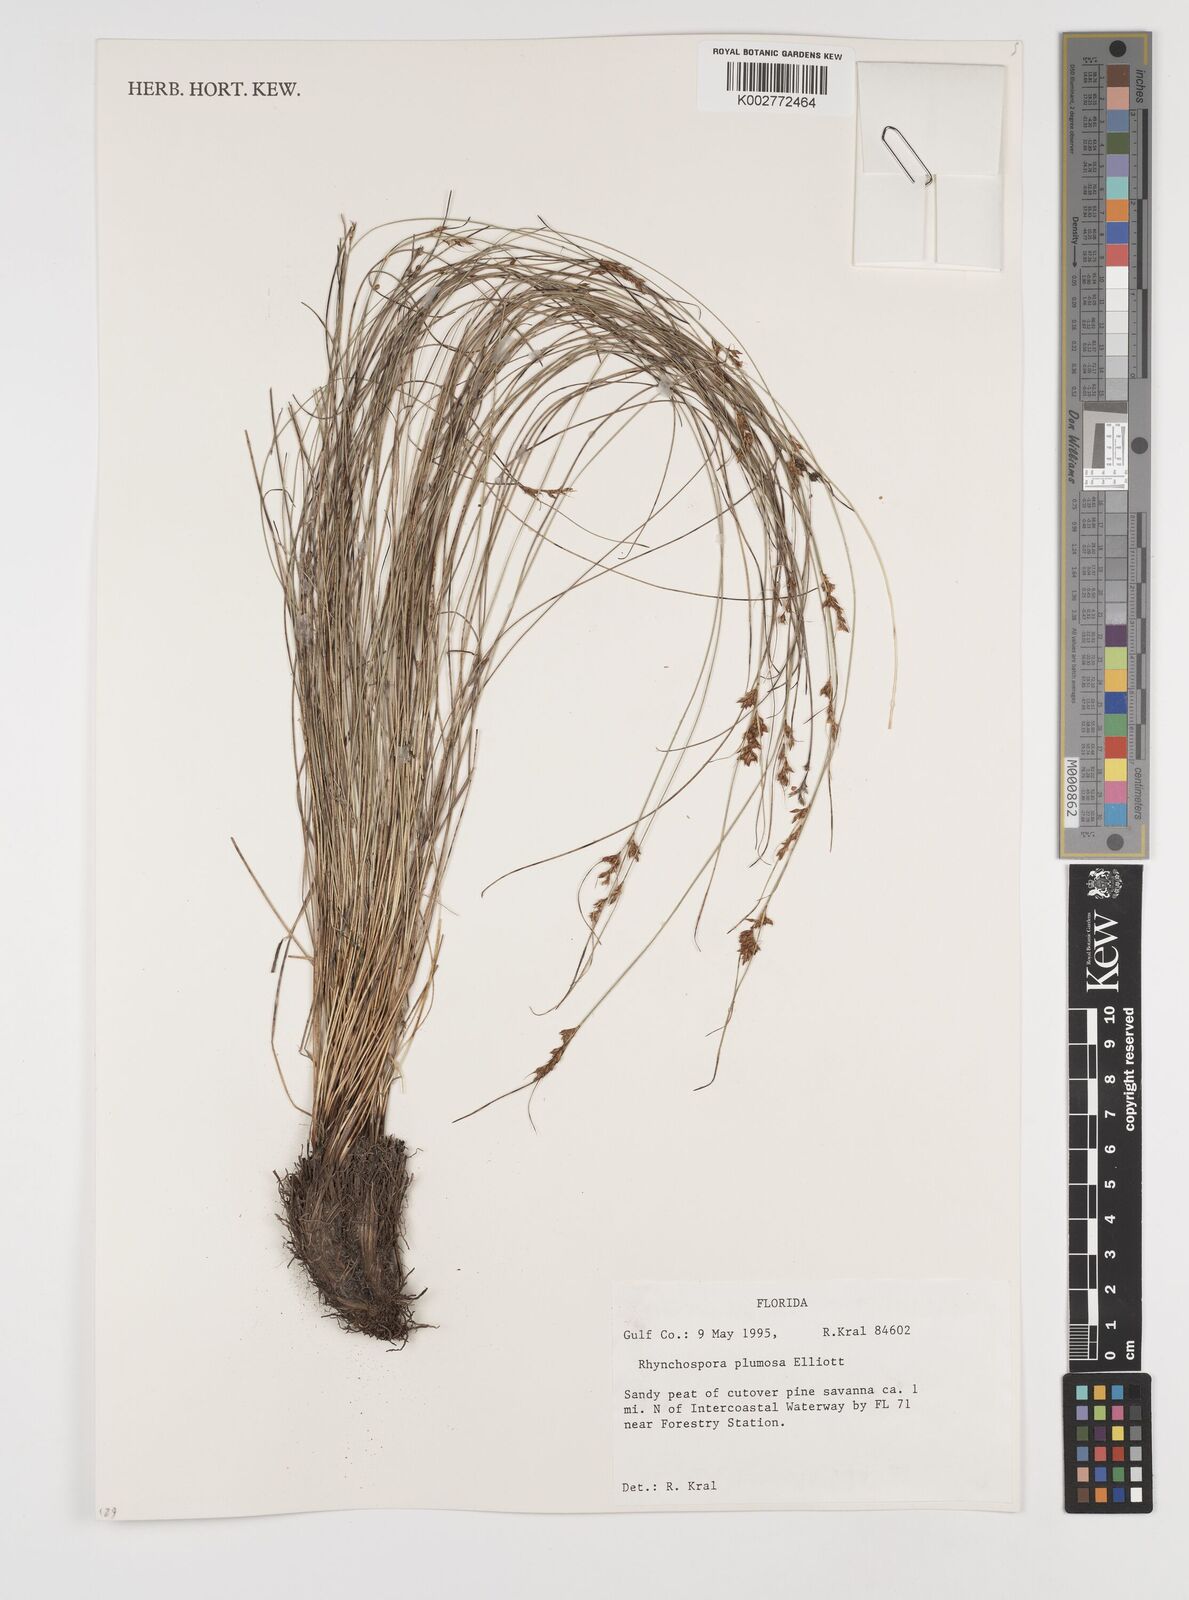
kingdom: Plantae
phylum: Tracheophyta
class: Liliopsida
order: Poales
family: Cyperaceae
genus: Rhynchospora
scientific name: Rhynchospora plumosa
